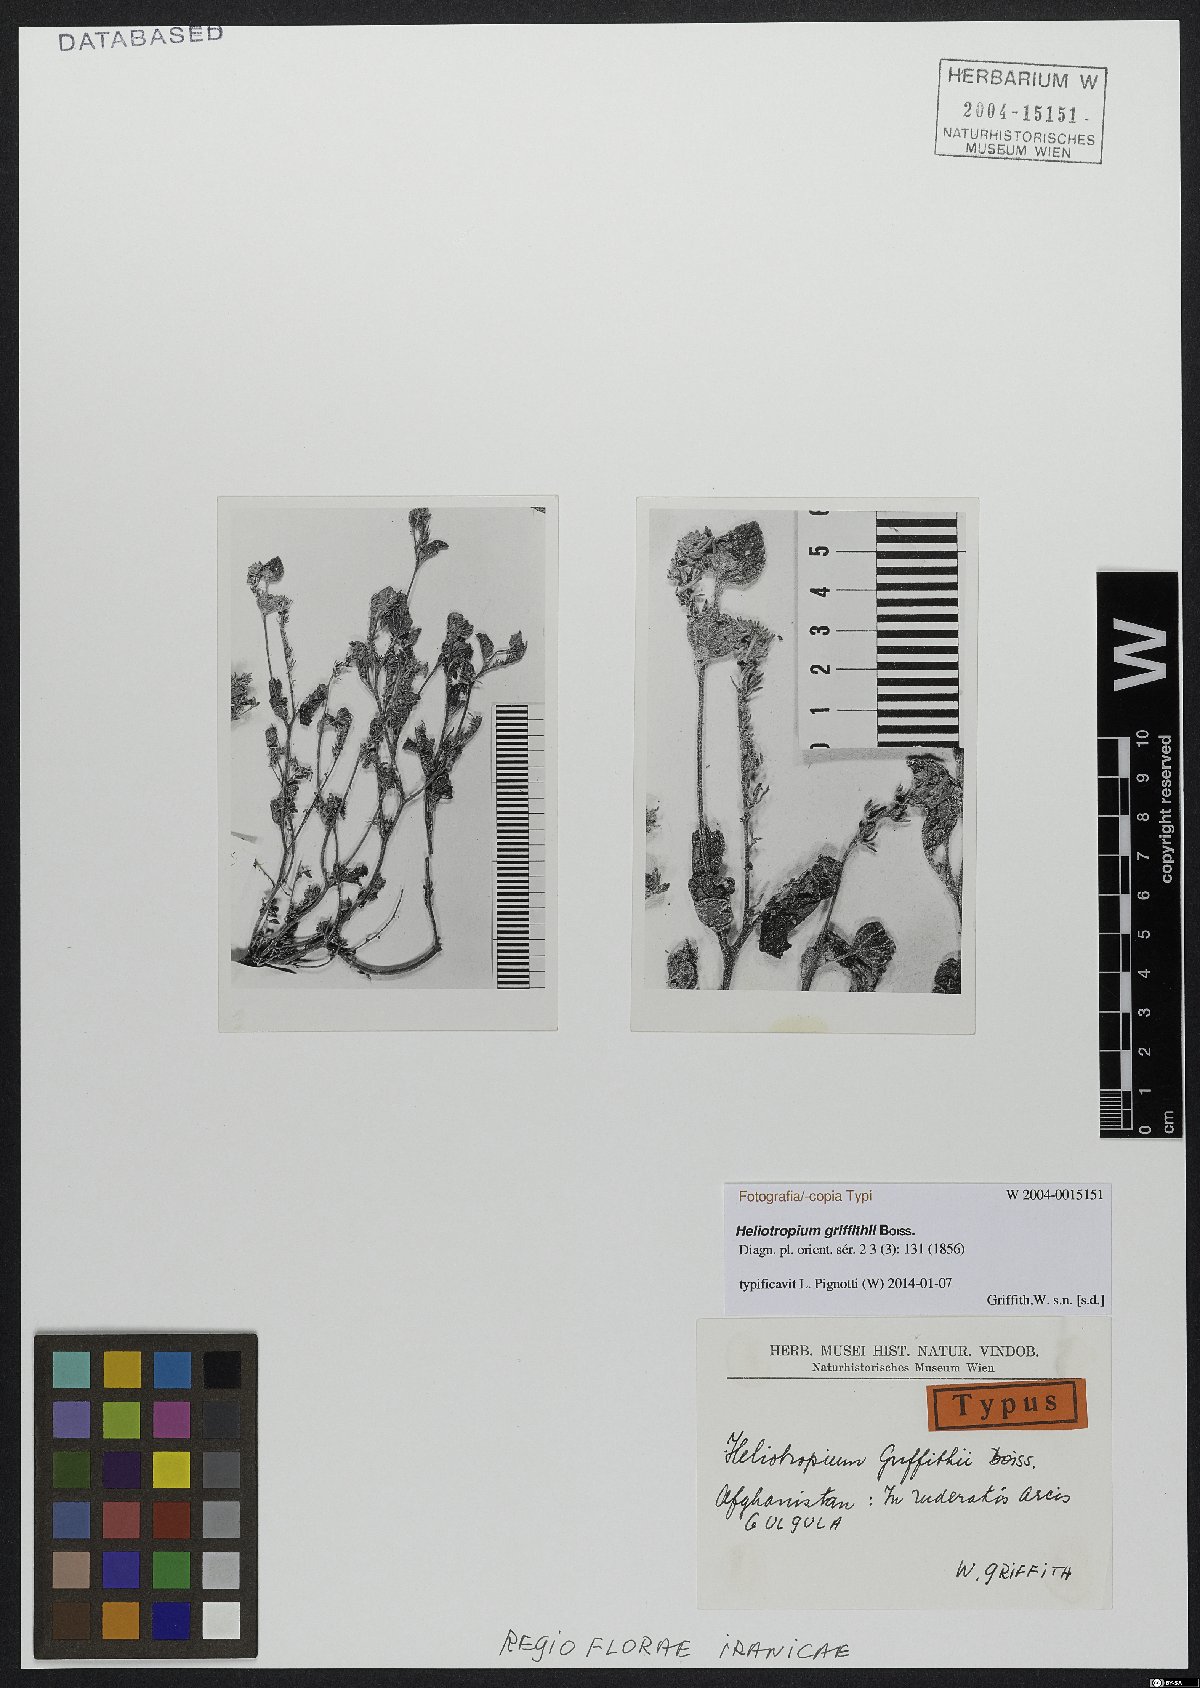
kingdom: Plantae
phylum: Tracheophyta
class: Magnoliopsida
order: Boraginales
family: Heliotropiaceae
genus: Heliotropium
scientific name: Heliotropium griffithii
